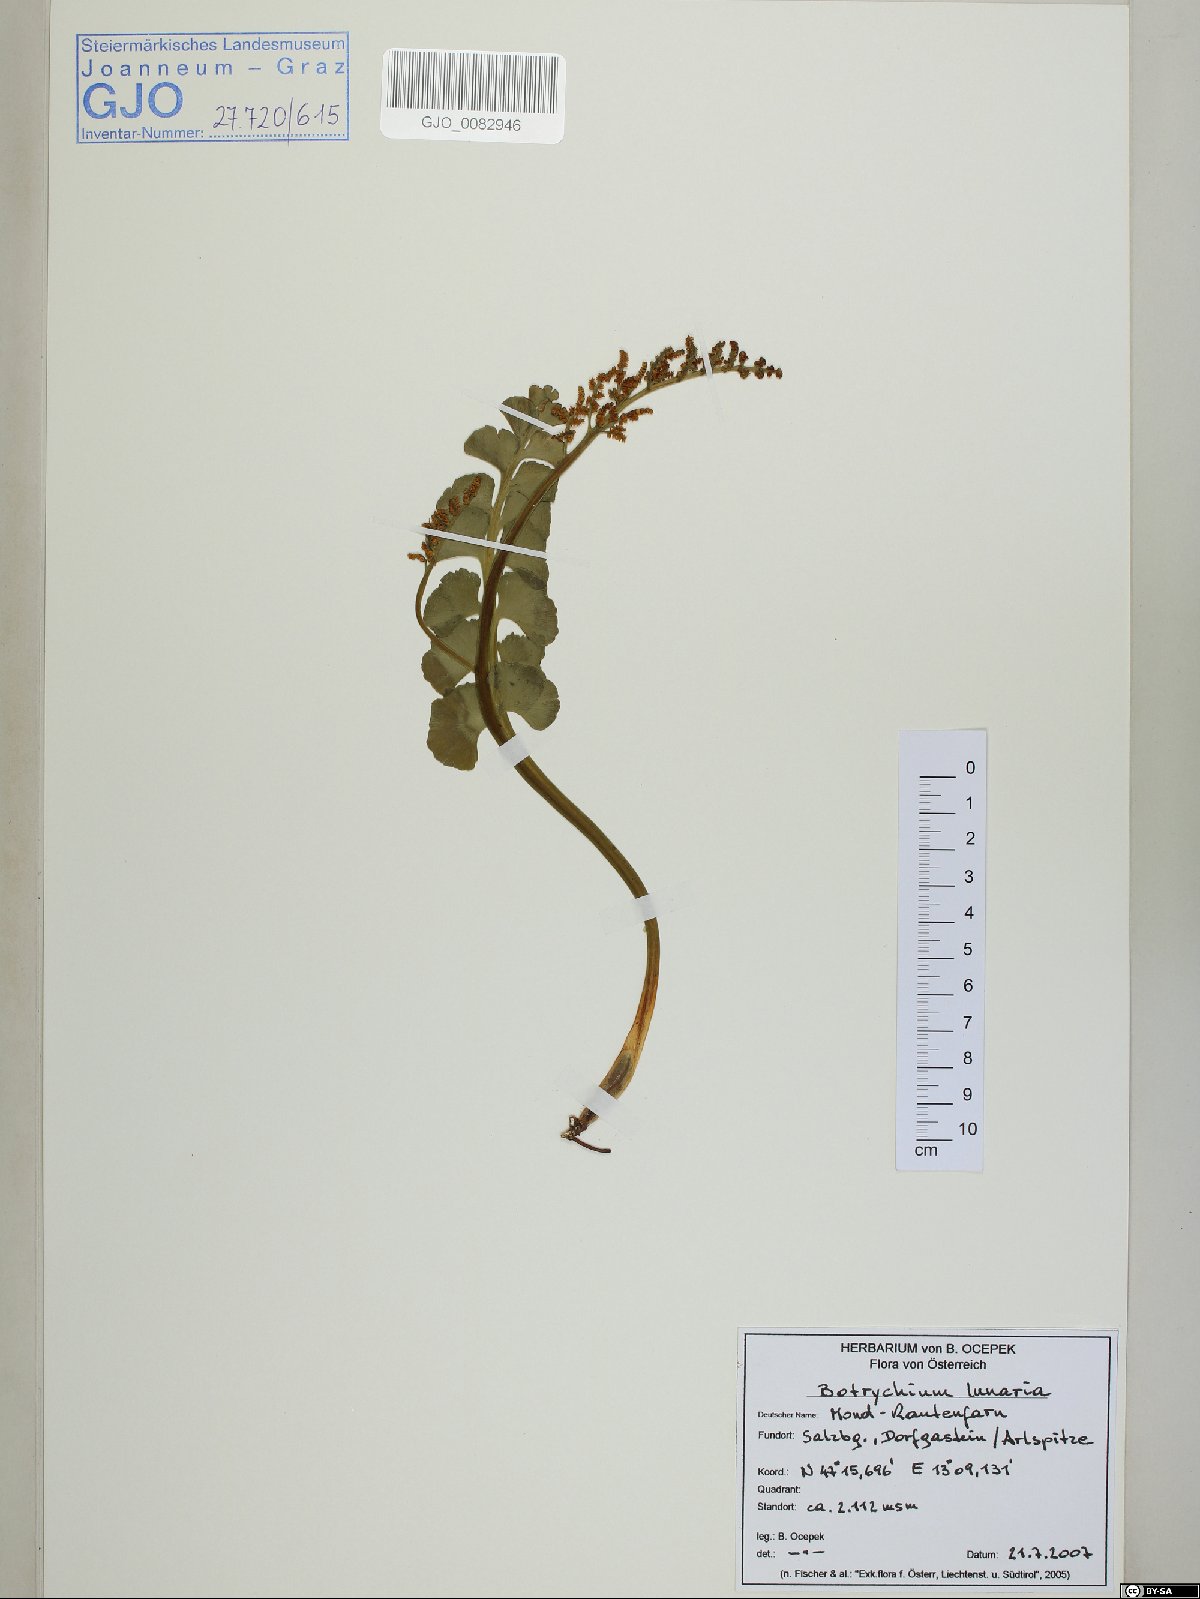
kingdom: Plantae
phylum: Tracheophyta
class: Polypodiopsida
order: Ophioglossales
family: Ophioglossaceae
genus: Botrychium
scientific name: Botrychium lunaria
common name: Moonwort
